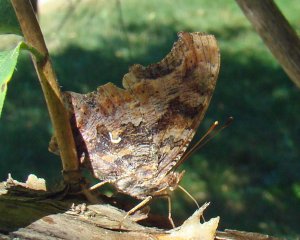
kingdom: Animalia
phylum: Arthropoda
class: Insecta
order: Lepidoptera
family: Nymphalidae
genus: Polygonia
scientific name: Polygonia comma
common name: Eastern Comma
